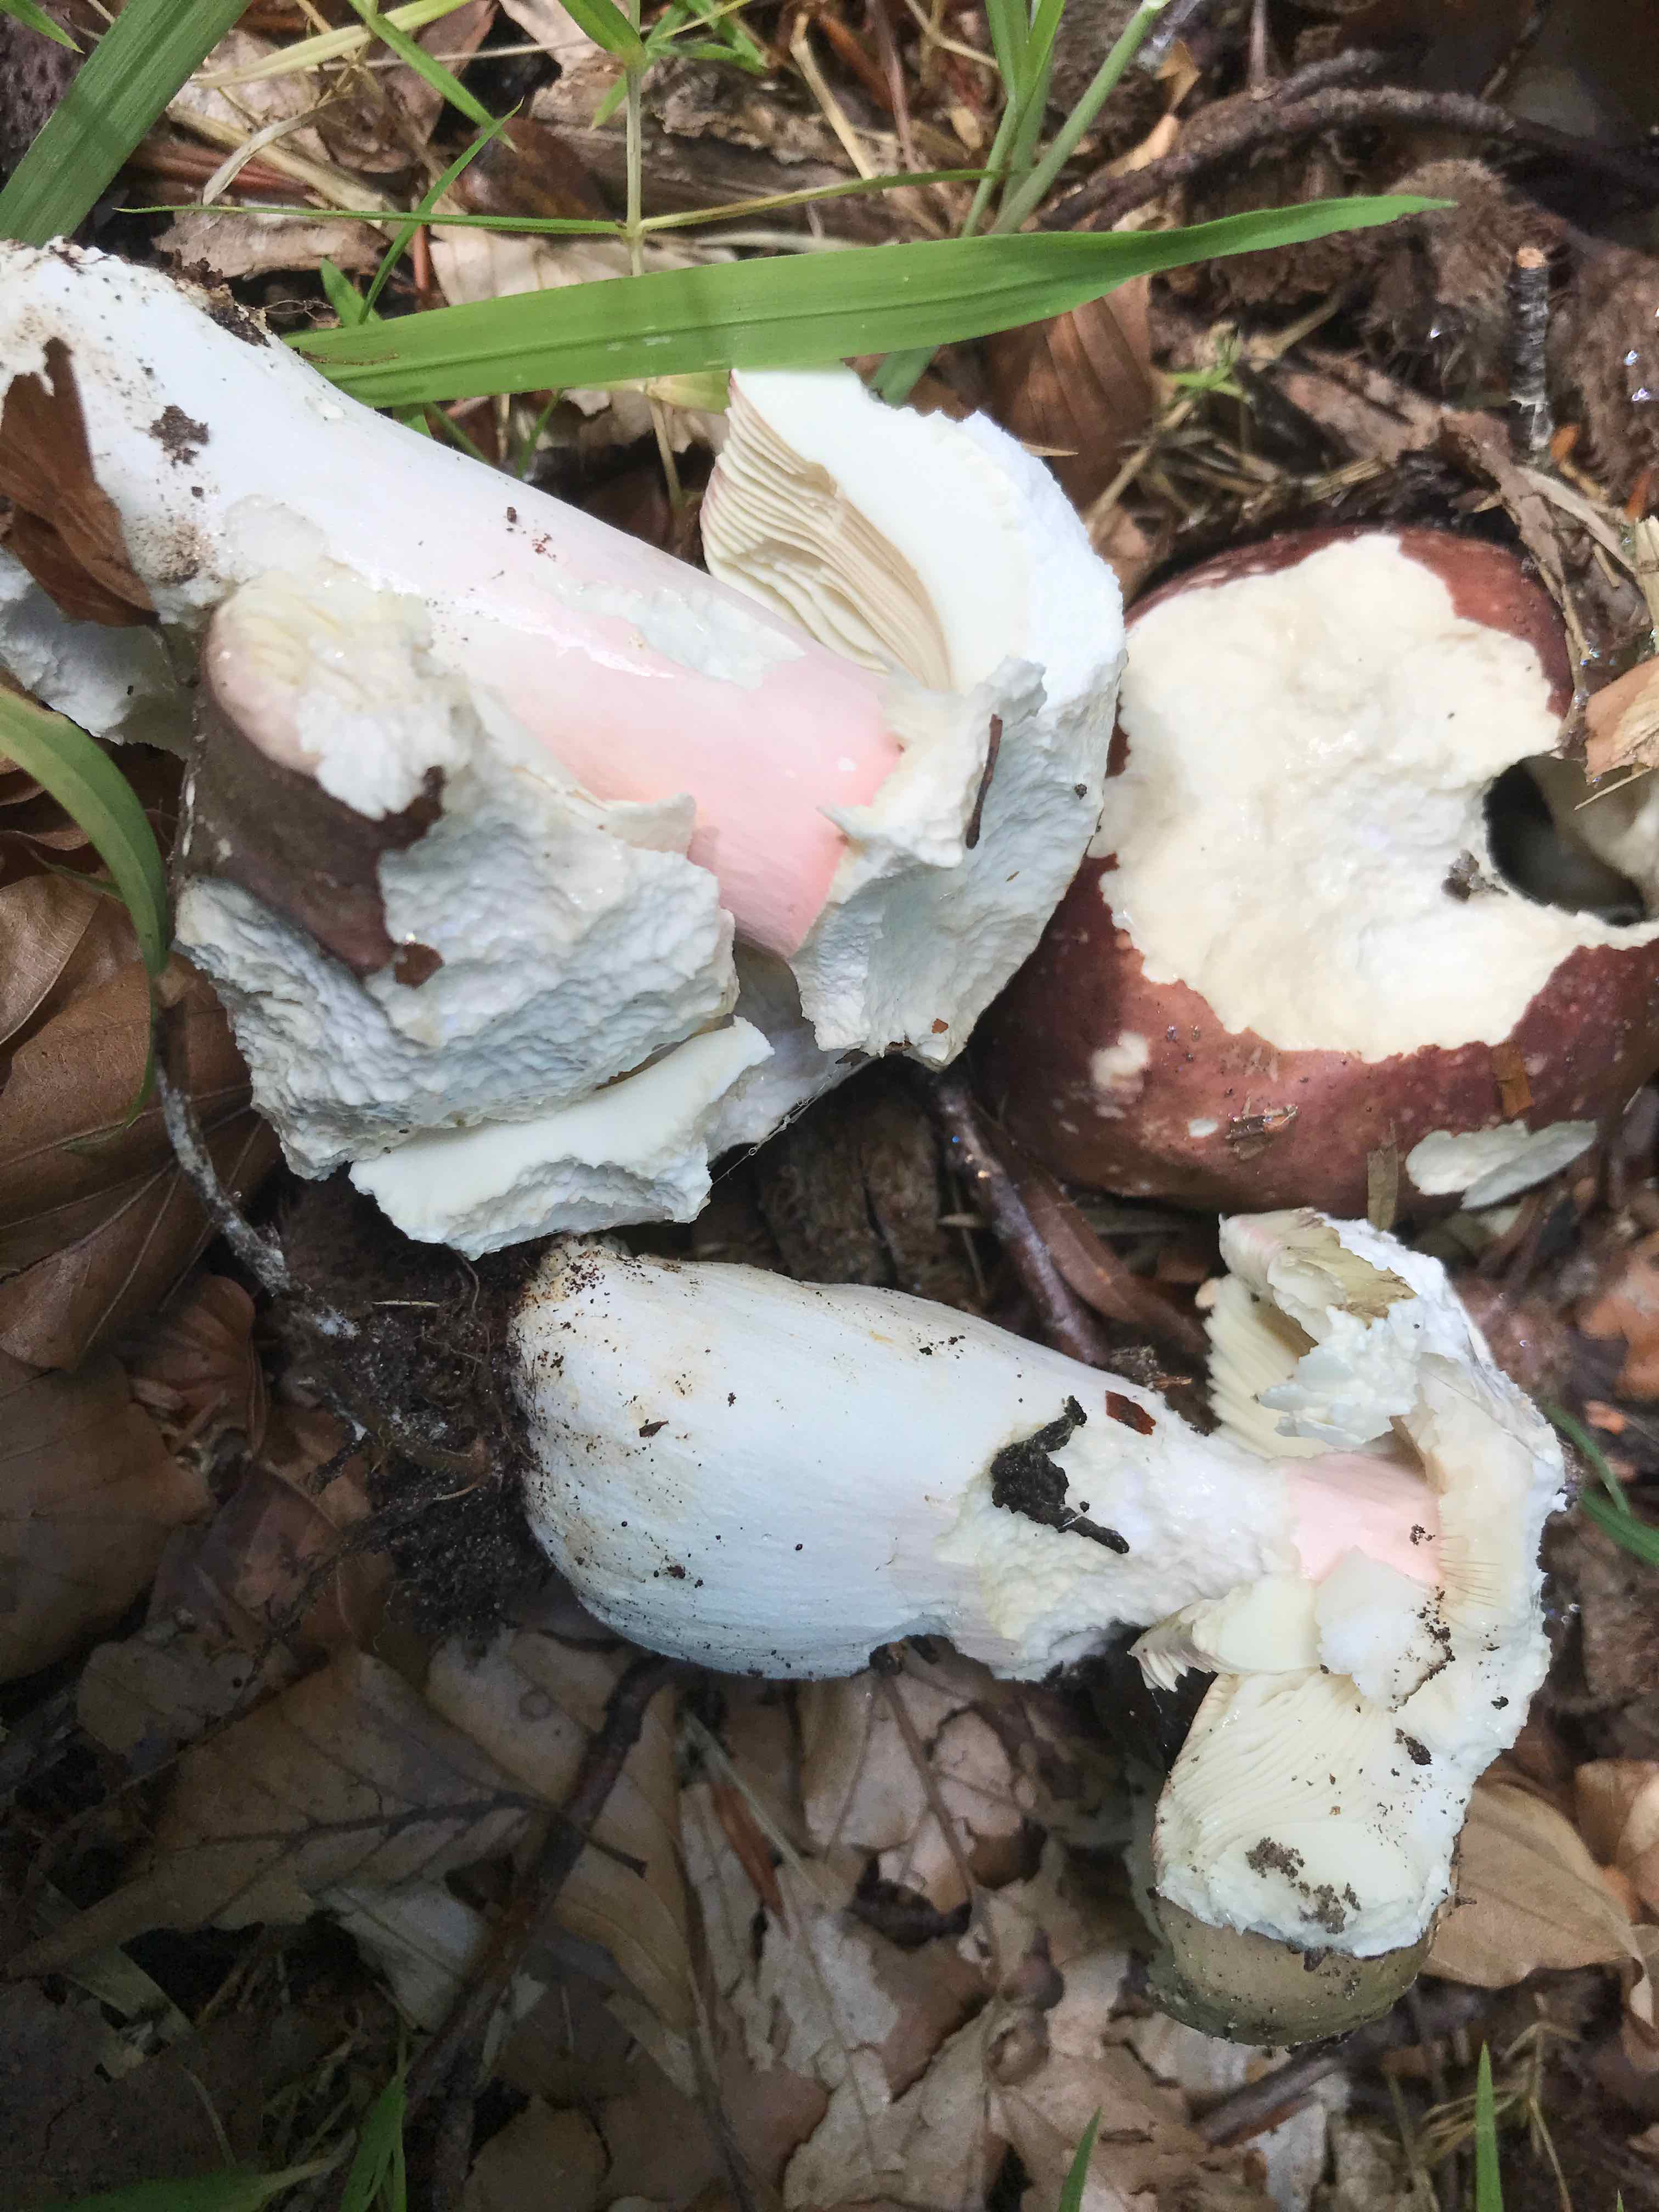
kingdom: Fungi
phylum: Basidiomycota
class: Agaricomycetes
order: Russulales
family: Russulaceae
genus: Russula
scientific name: Russula olivacea
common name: stor skørhat
